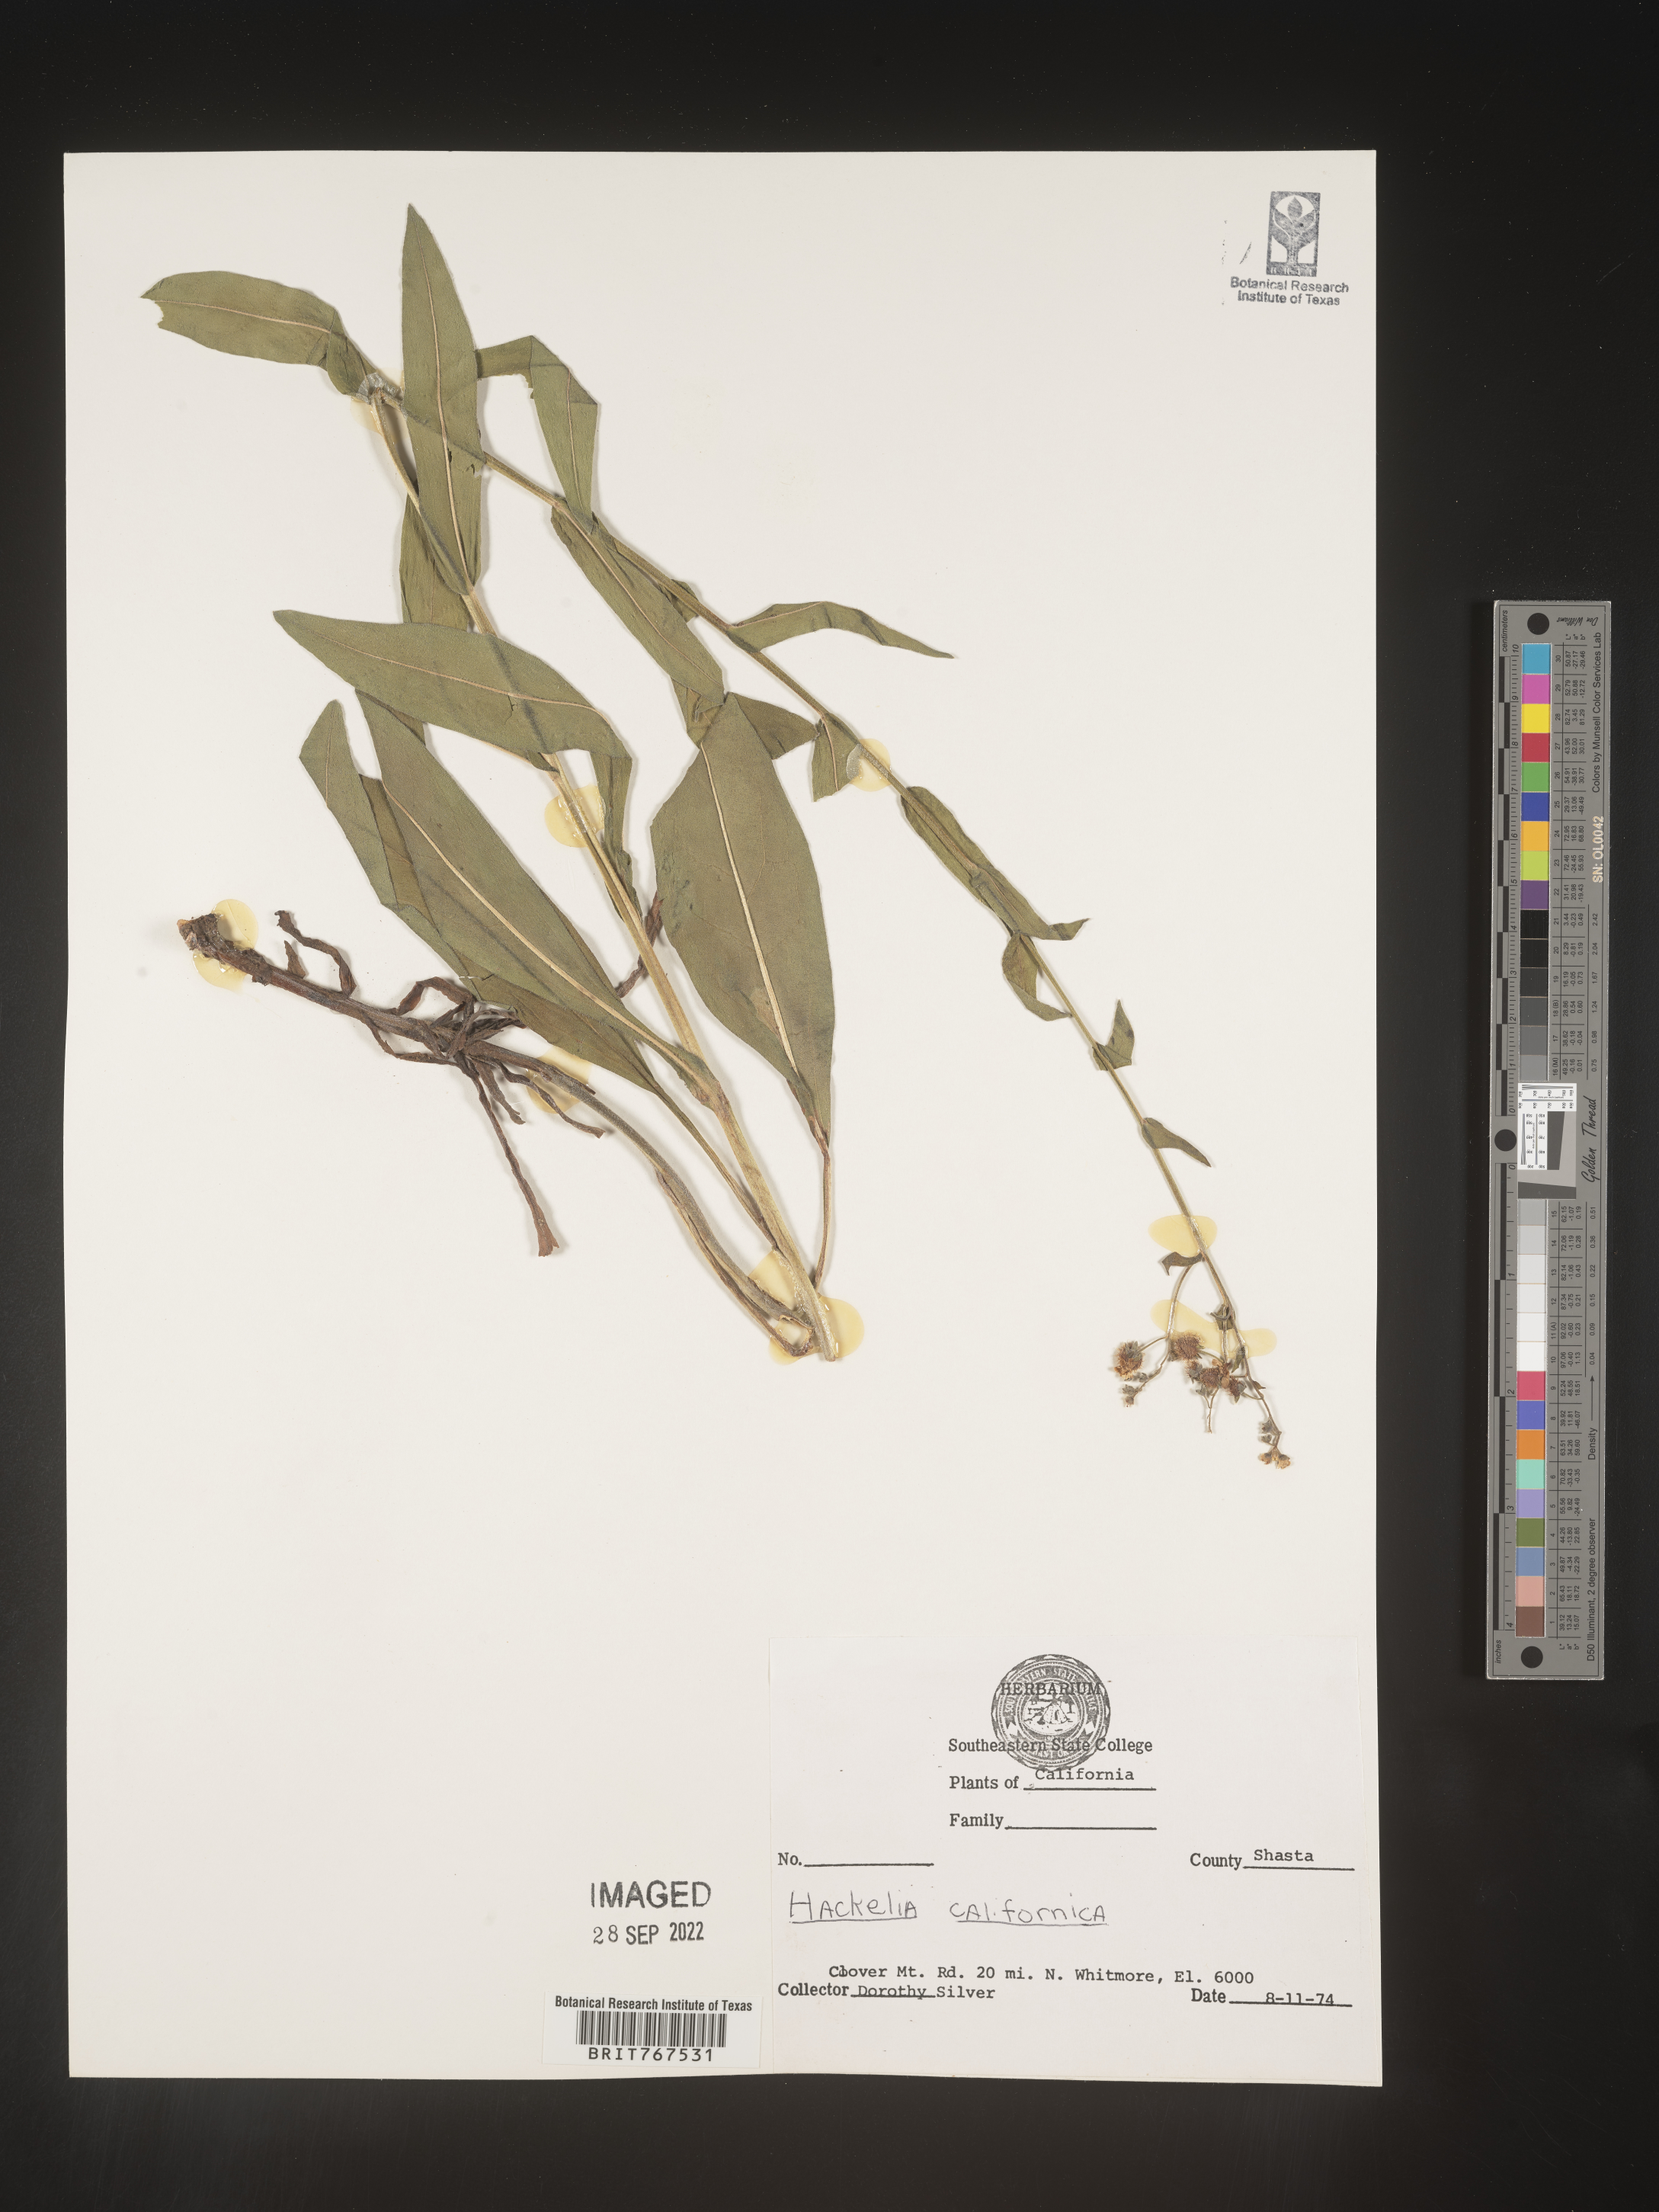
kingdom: Plantae
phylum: Tracheophyta
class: Magnoliopsida
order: Boraginales
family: Boraginaceae
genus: Hackelia
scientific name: Hackelia
